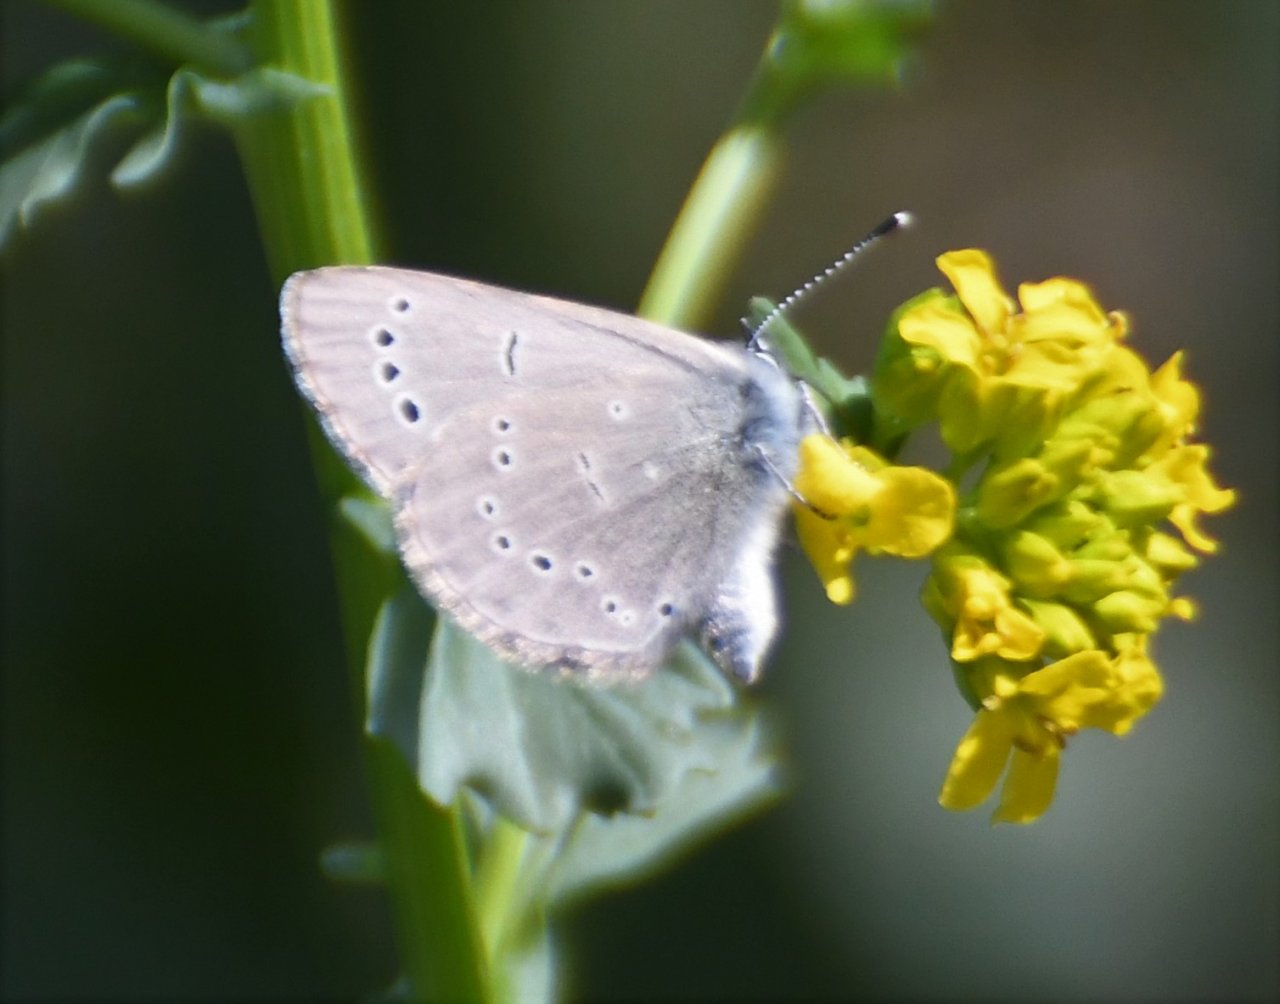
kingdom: Animalia
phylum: Arthropoda
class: Insecta
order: Lepidoptera
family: Lycaenidae
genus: Glaucopsyche
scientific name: Glaucopsyche lygdamus
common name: Silvery Blue
